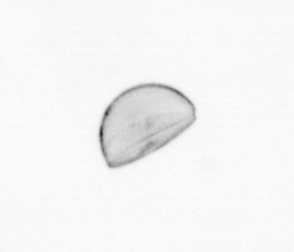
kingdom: Chromista
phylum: Ochrophyta
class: Bacillariophyceae
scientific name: Bacillariophyceae
